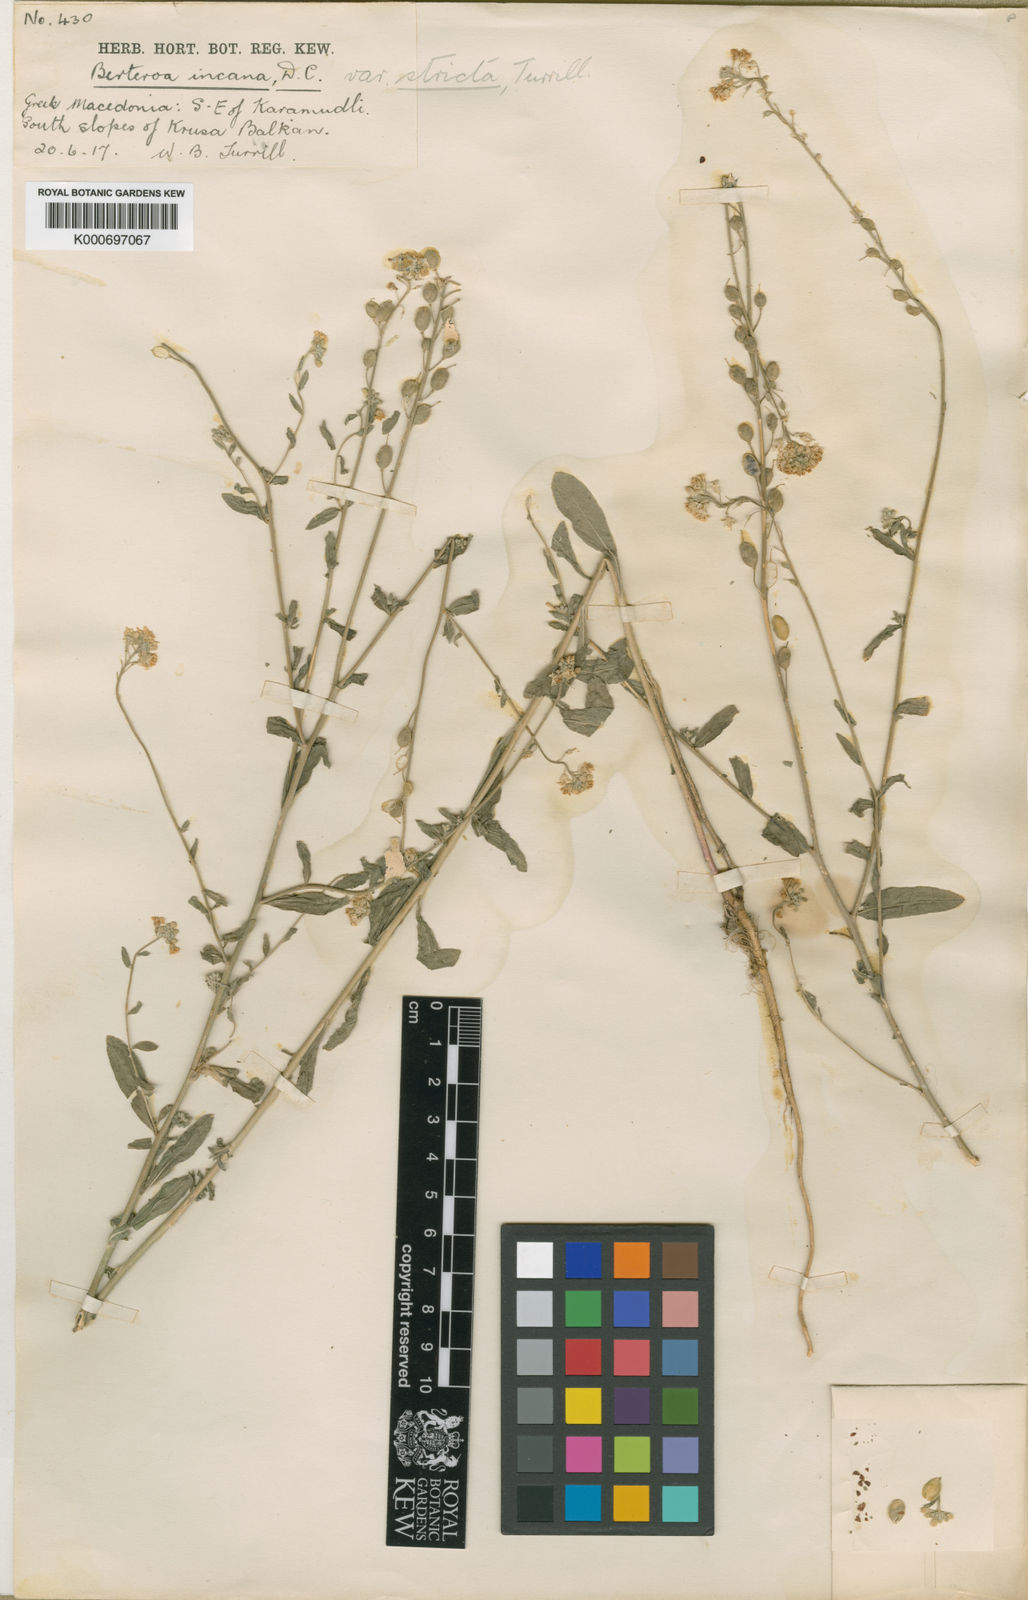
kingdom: Plantae
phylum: Tracheophyta
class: Magnoliopsida
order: Brassicales
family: Brassicaceae
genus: Berteroa
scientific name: Berteroa incana
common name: Hoary alison
